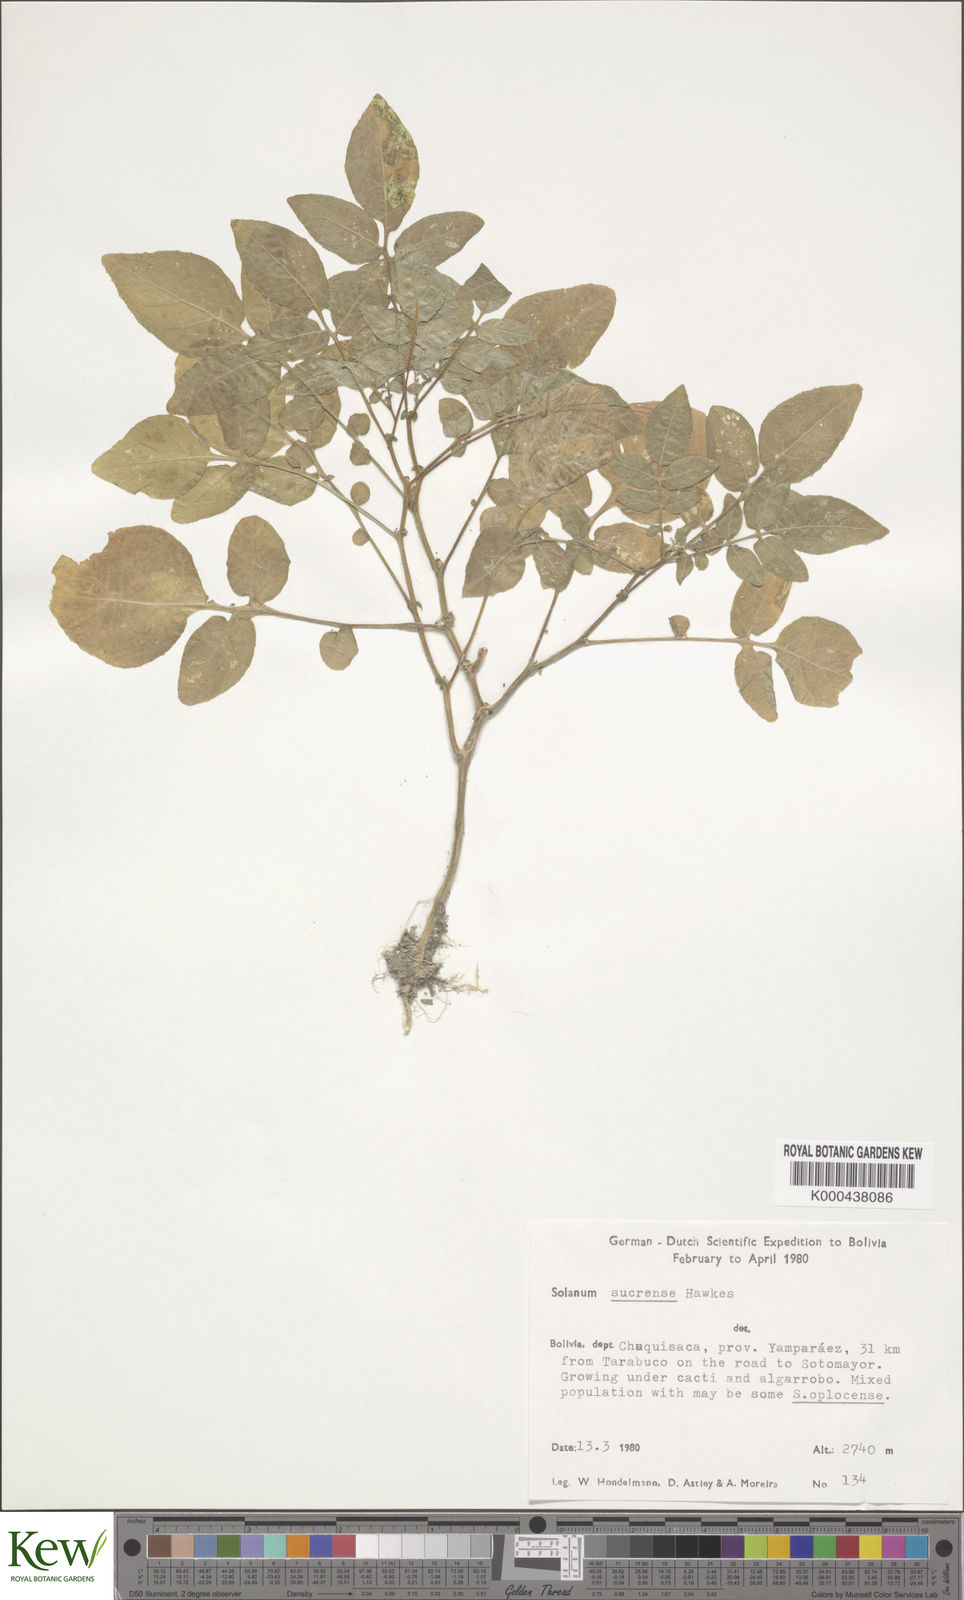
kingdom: Plantae
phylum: Tracheophyta
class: Magnoliopsida
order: Solanales
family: Solanaceae
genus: Solanum
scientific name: Solanum brevicaule
